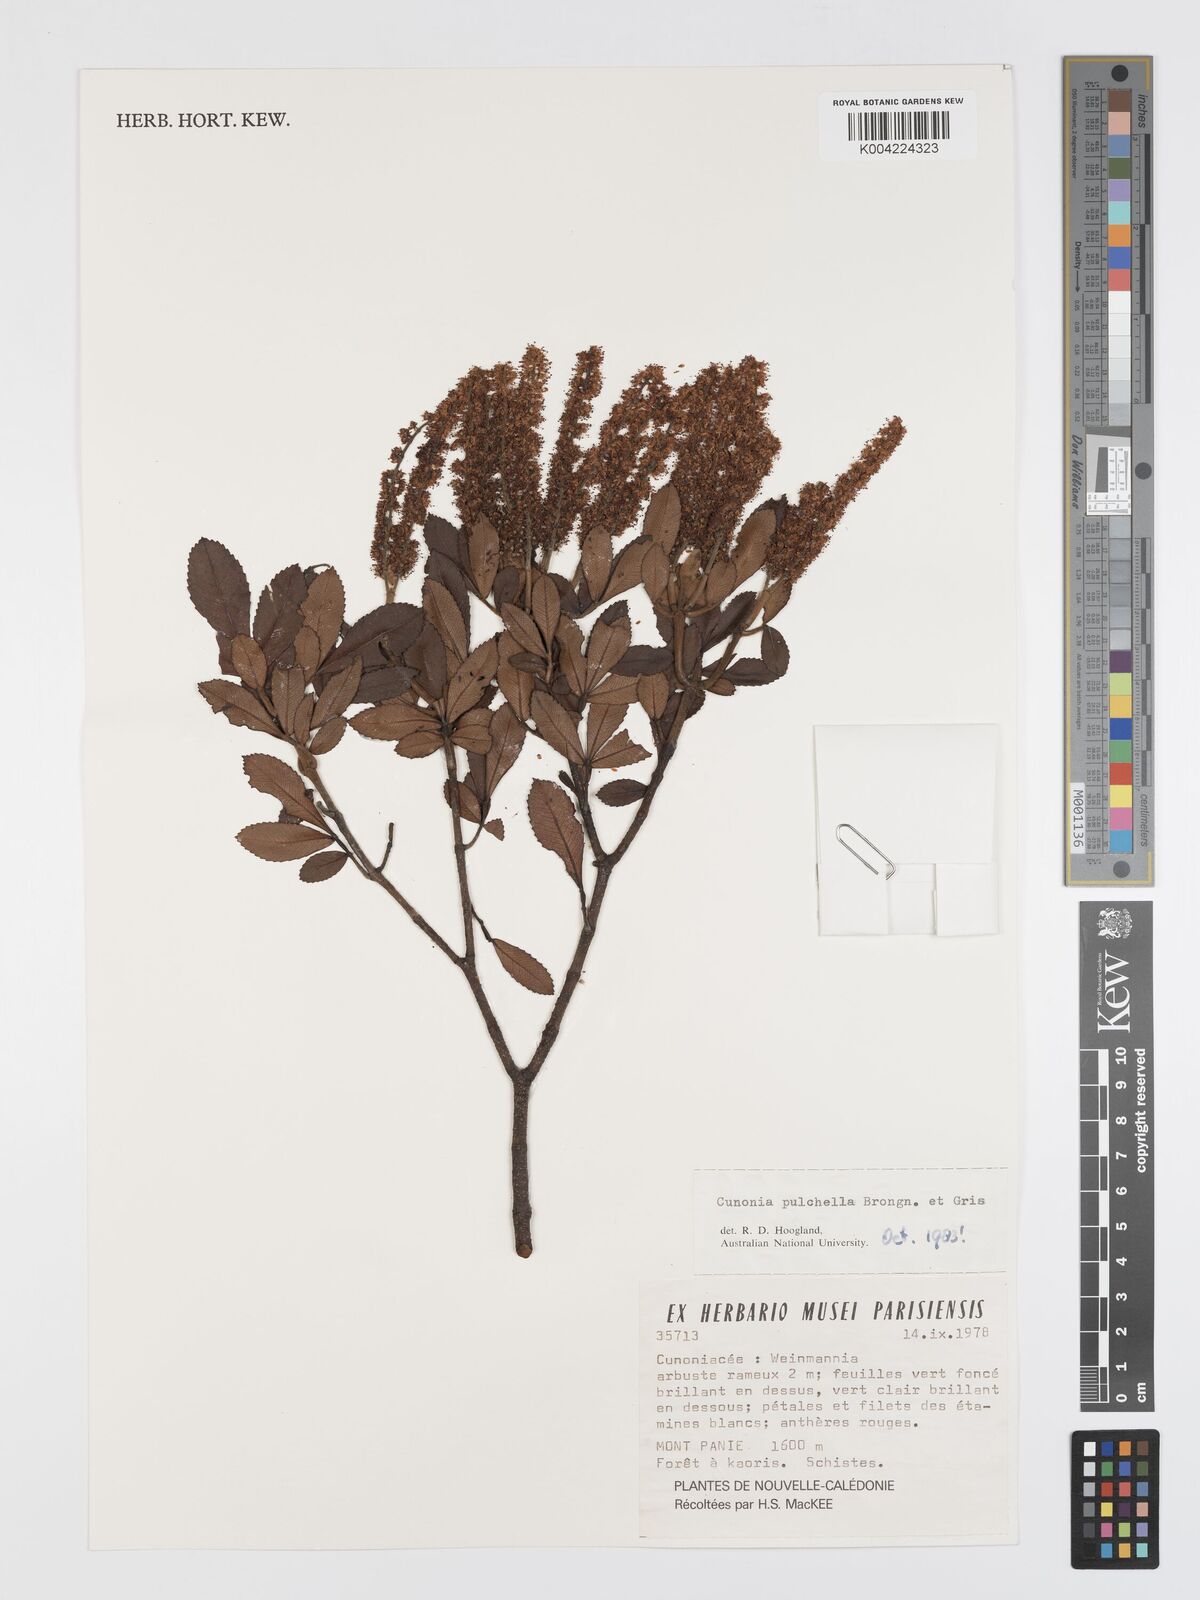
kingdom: Plantae
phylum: Tracheophyta
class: Magnoliopsida
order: Oxalidales
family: Cunoniaceae
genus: Cunonia
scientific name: Cunonia pulchella
